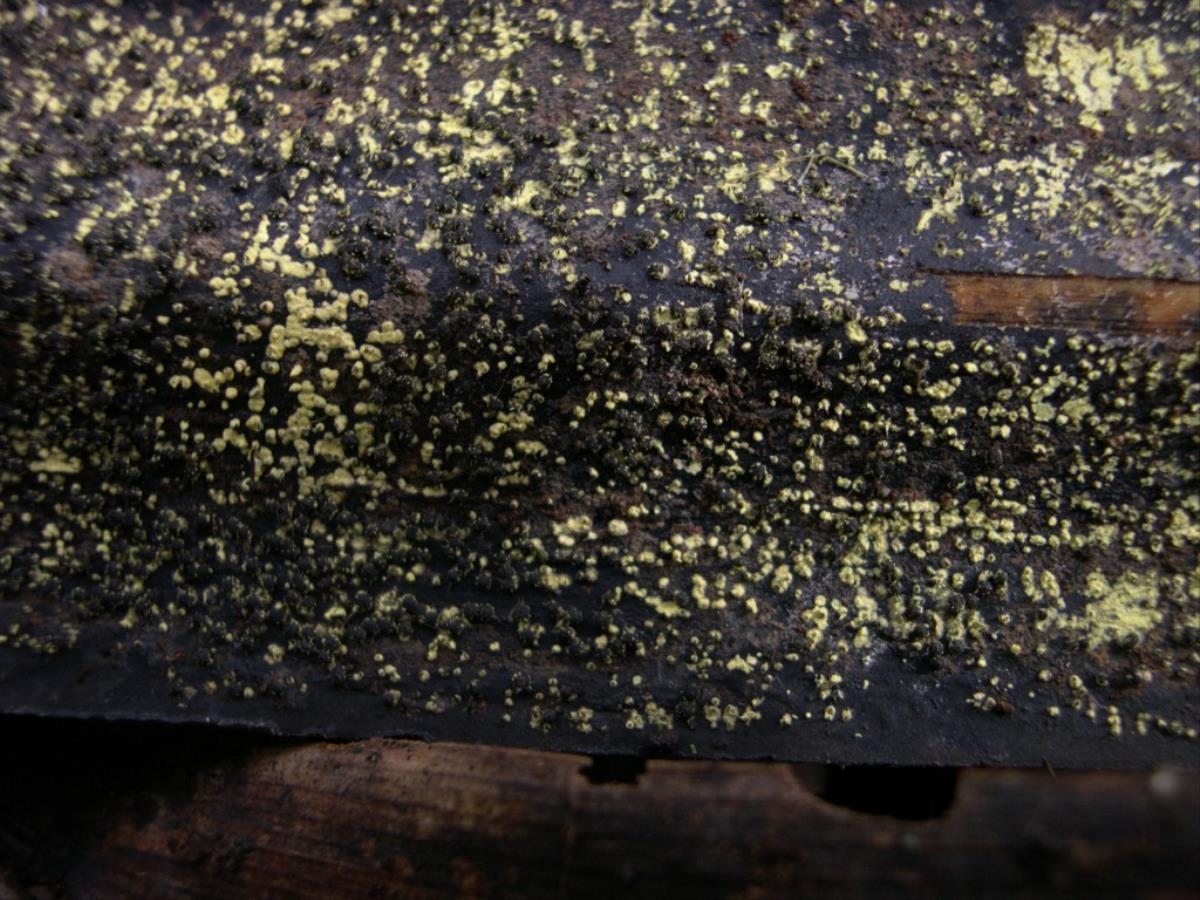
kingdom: Fungi
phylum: Ascomycota
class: Sordariomycetes
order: Xylariales
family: Xylariaceae
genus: Stilbohypoxylon
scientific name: Stilbohypoxylon moelleri
